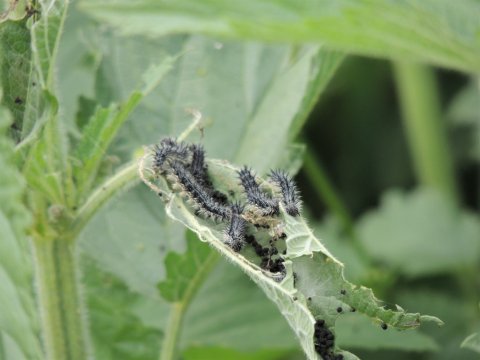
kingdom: Animalia
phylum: Arthropoda
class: Insecta
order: Lepidoptera
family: Nymphalidae
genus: Aglais
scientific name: Aglais milberti
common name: Milbert's Tortoiseshell
